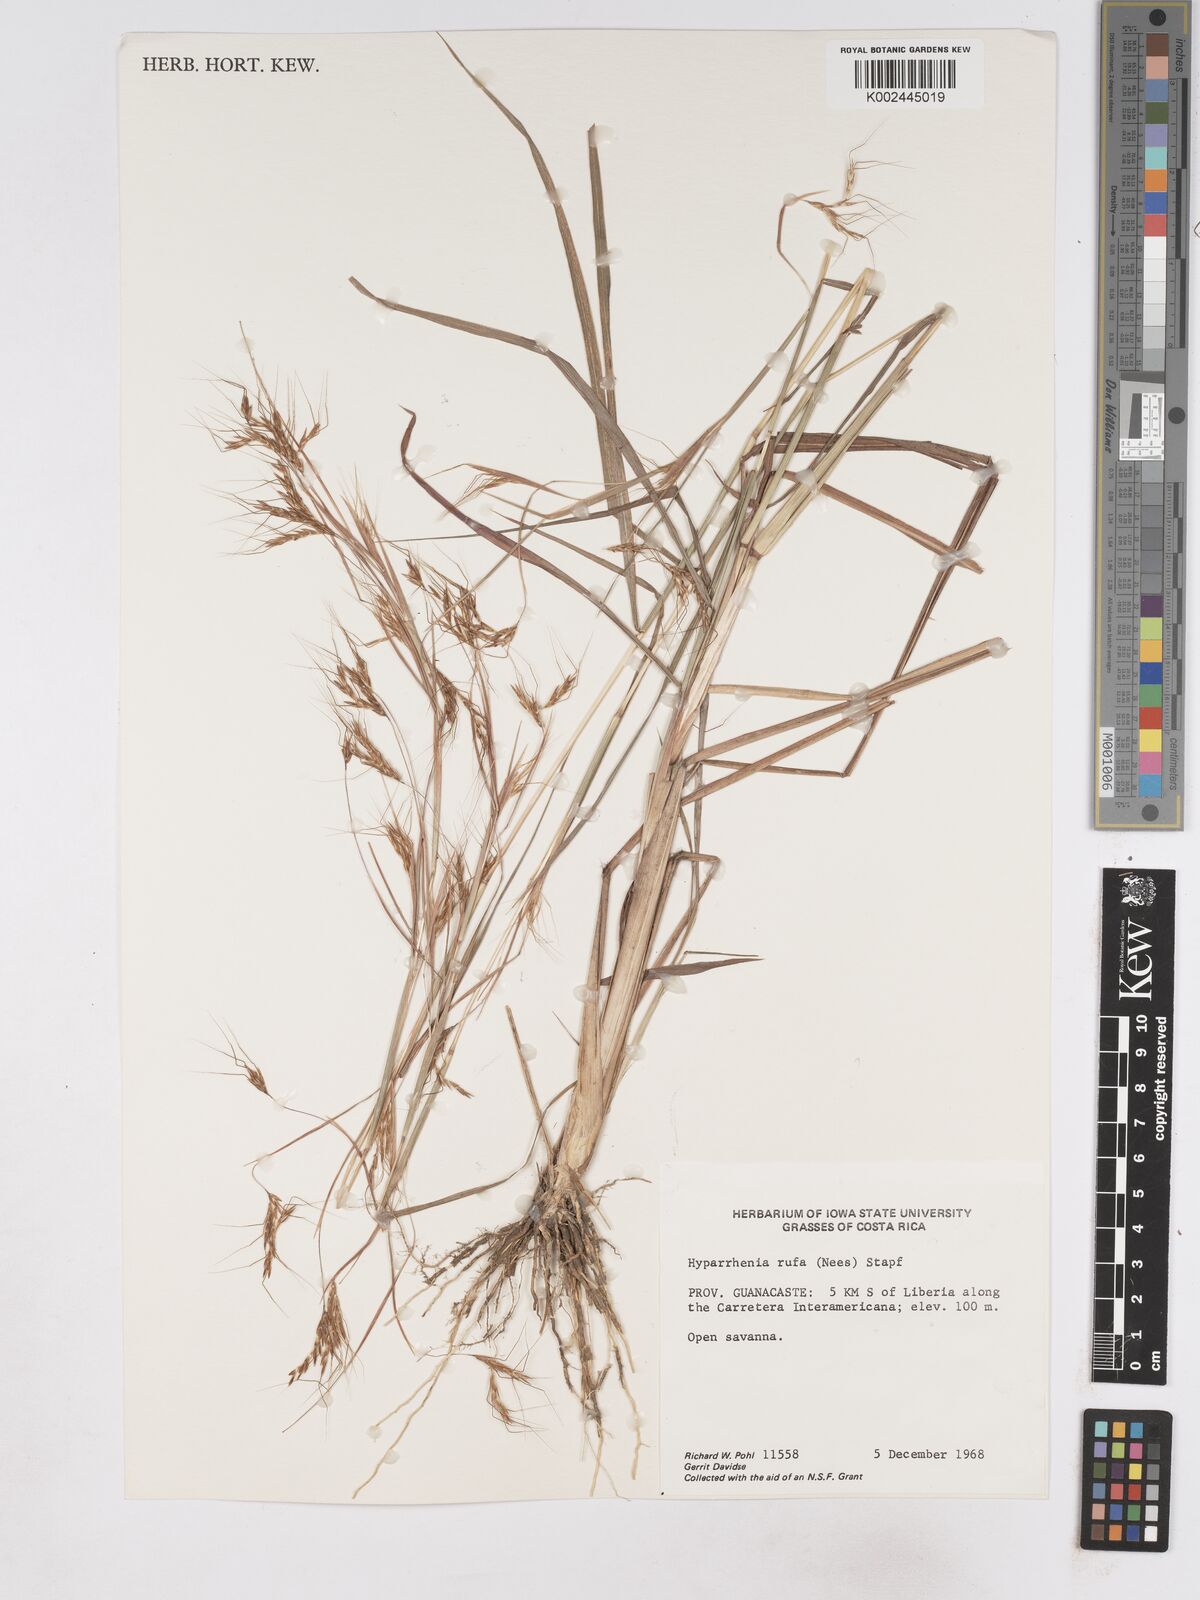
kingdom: Plantae
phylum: Tracheophyta
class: Liliopsida
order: Poales
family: Poaceae
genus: Hyparrhenia
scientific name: Hyparrhenia rufa
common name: Jaraguagrass
